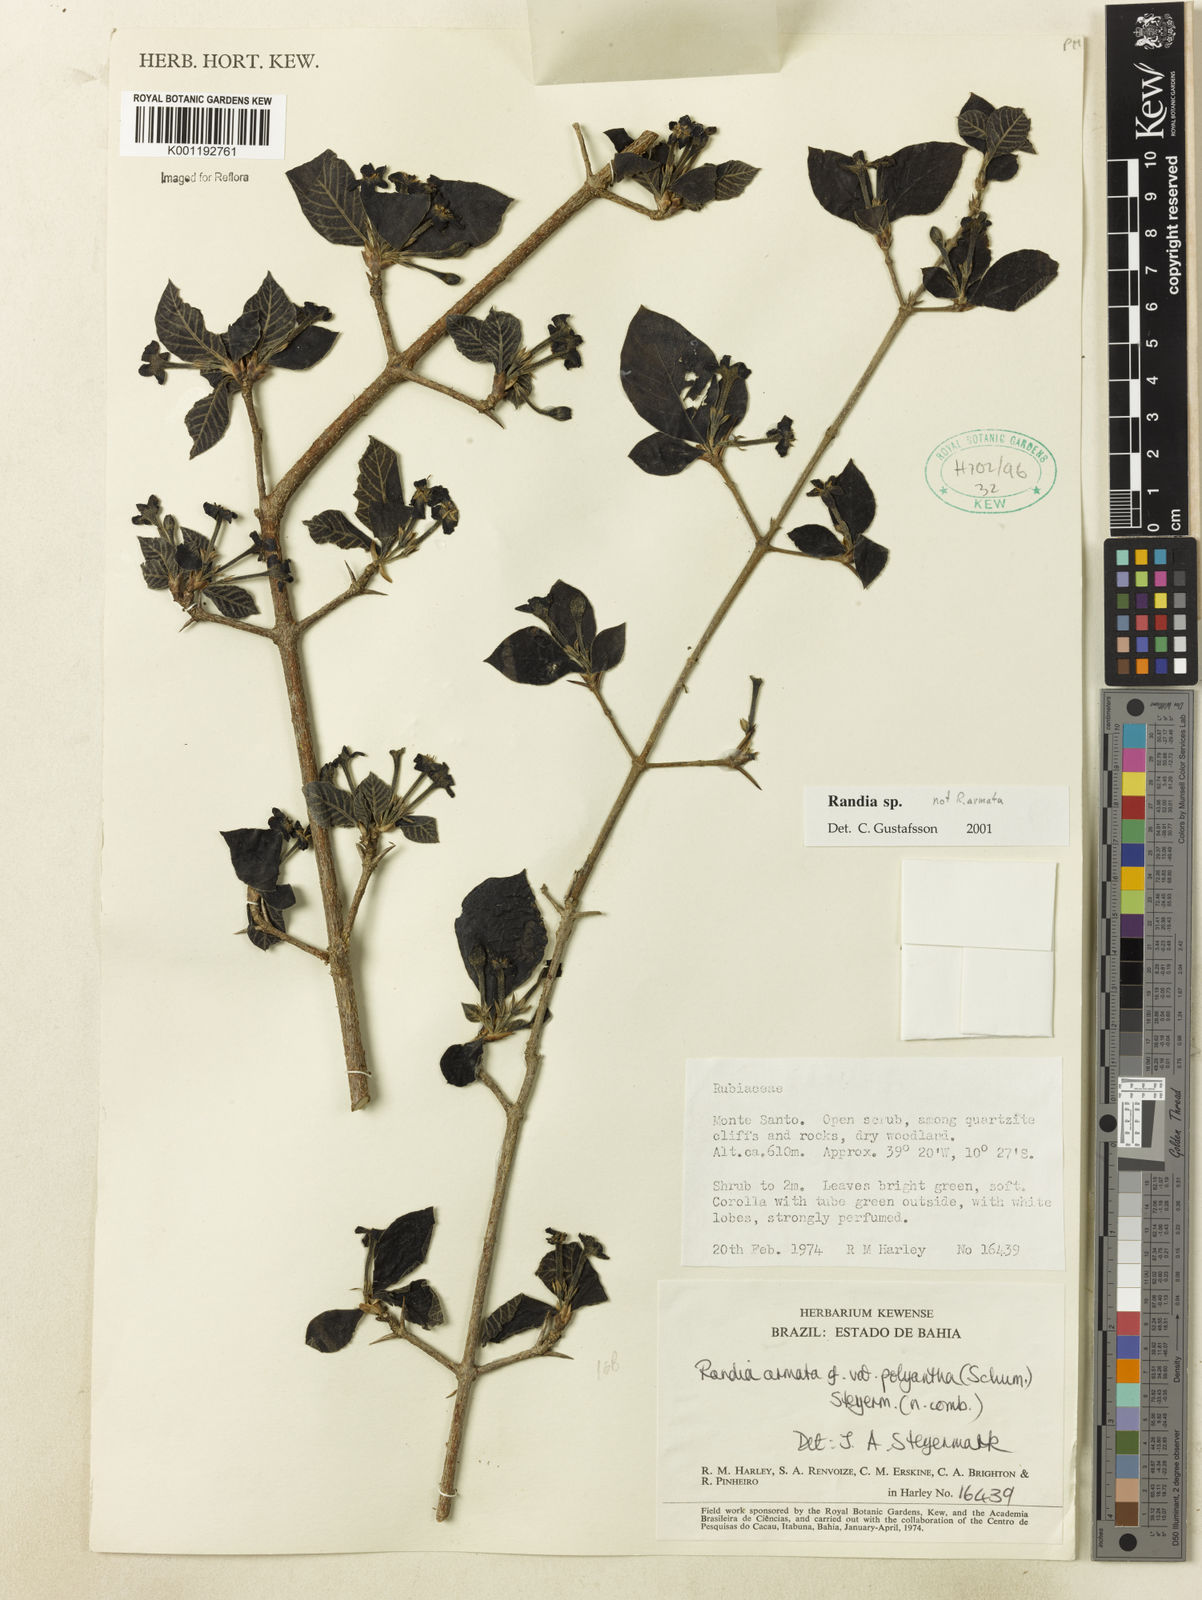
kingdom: Plantae
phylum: Tracheophyta
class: Magnoliopsida
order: Gentianales
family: Rubiaceae
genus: Randia
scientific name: Randia
